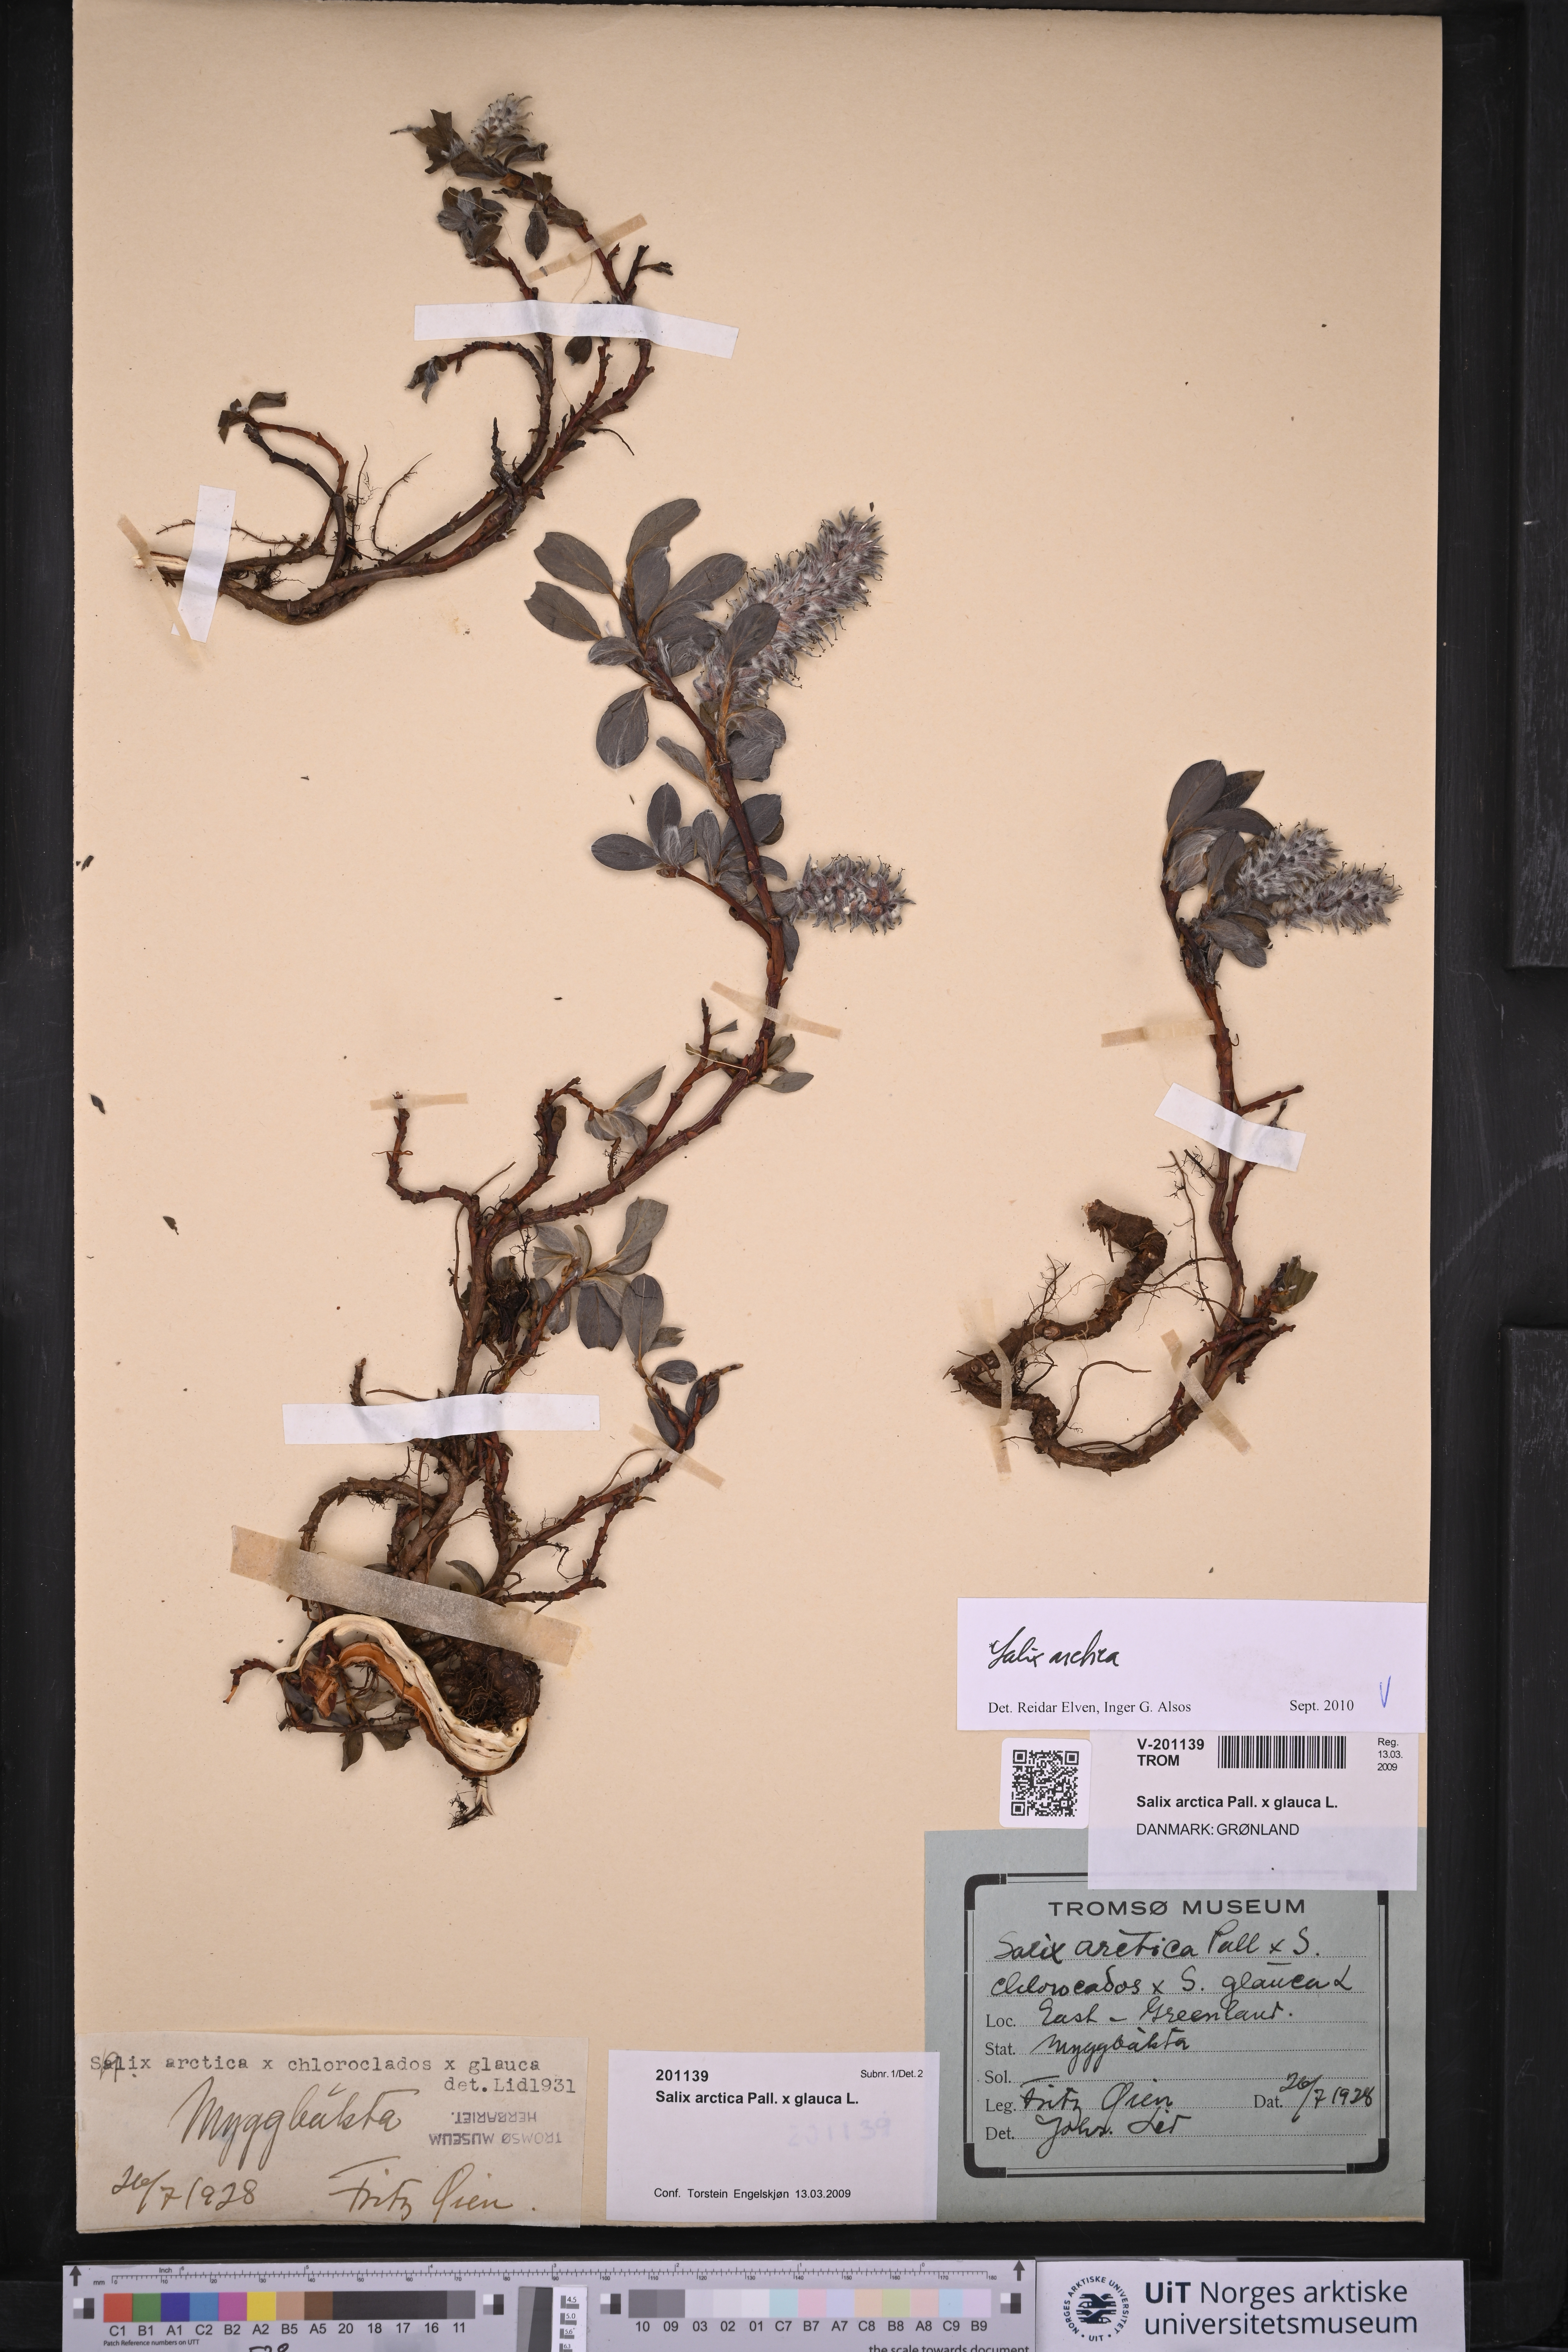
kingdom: Plantae
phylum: Tracheophyta
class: Magnoliopsida
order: Malpighiales
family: Salicaceae
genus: Salix
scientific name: Salix arctica
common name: Arctic willow
